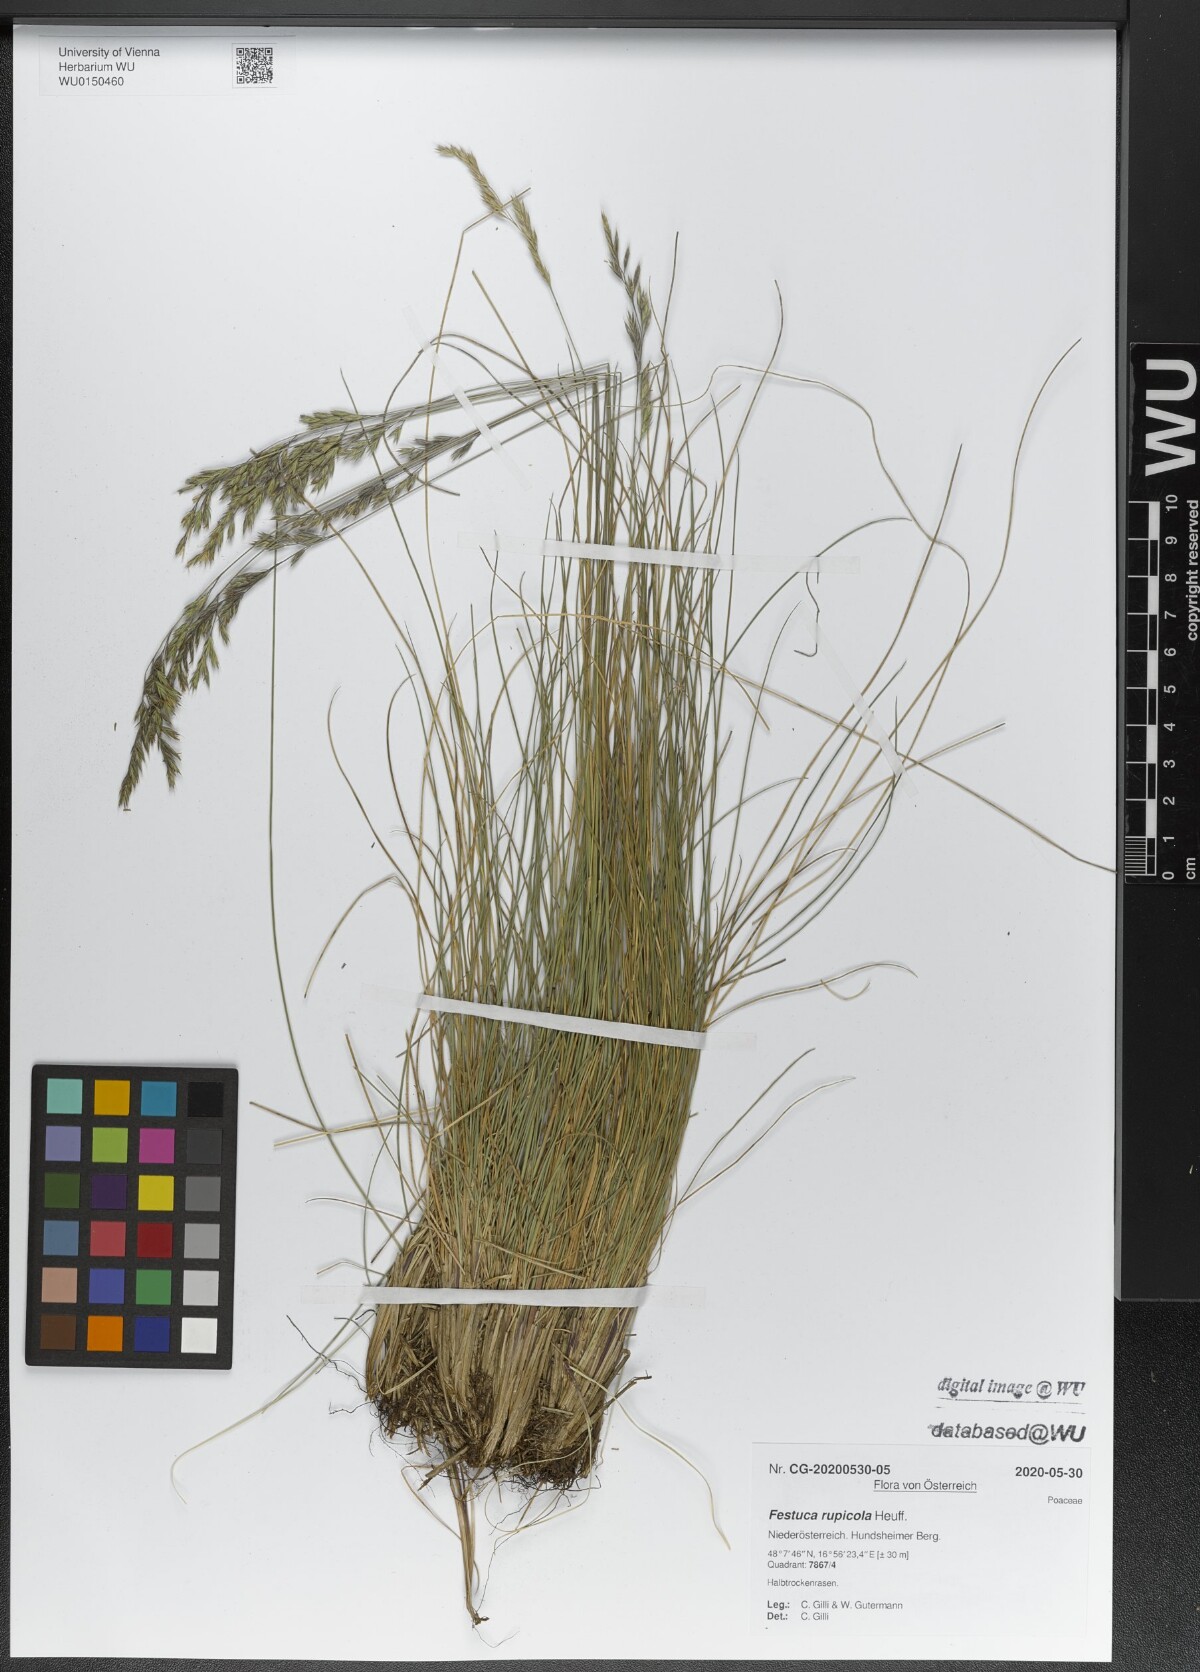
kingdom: Plantae
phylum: Tracheophyta
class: Liliopsida
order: Poales
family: Poaceae
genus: Festuca
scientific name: Festuca rupicola
